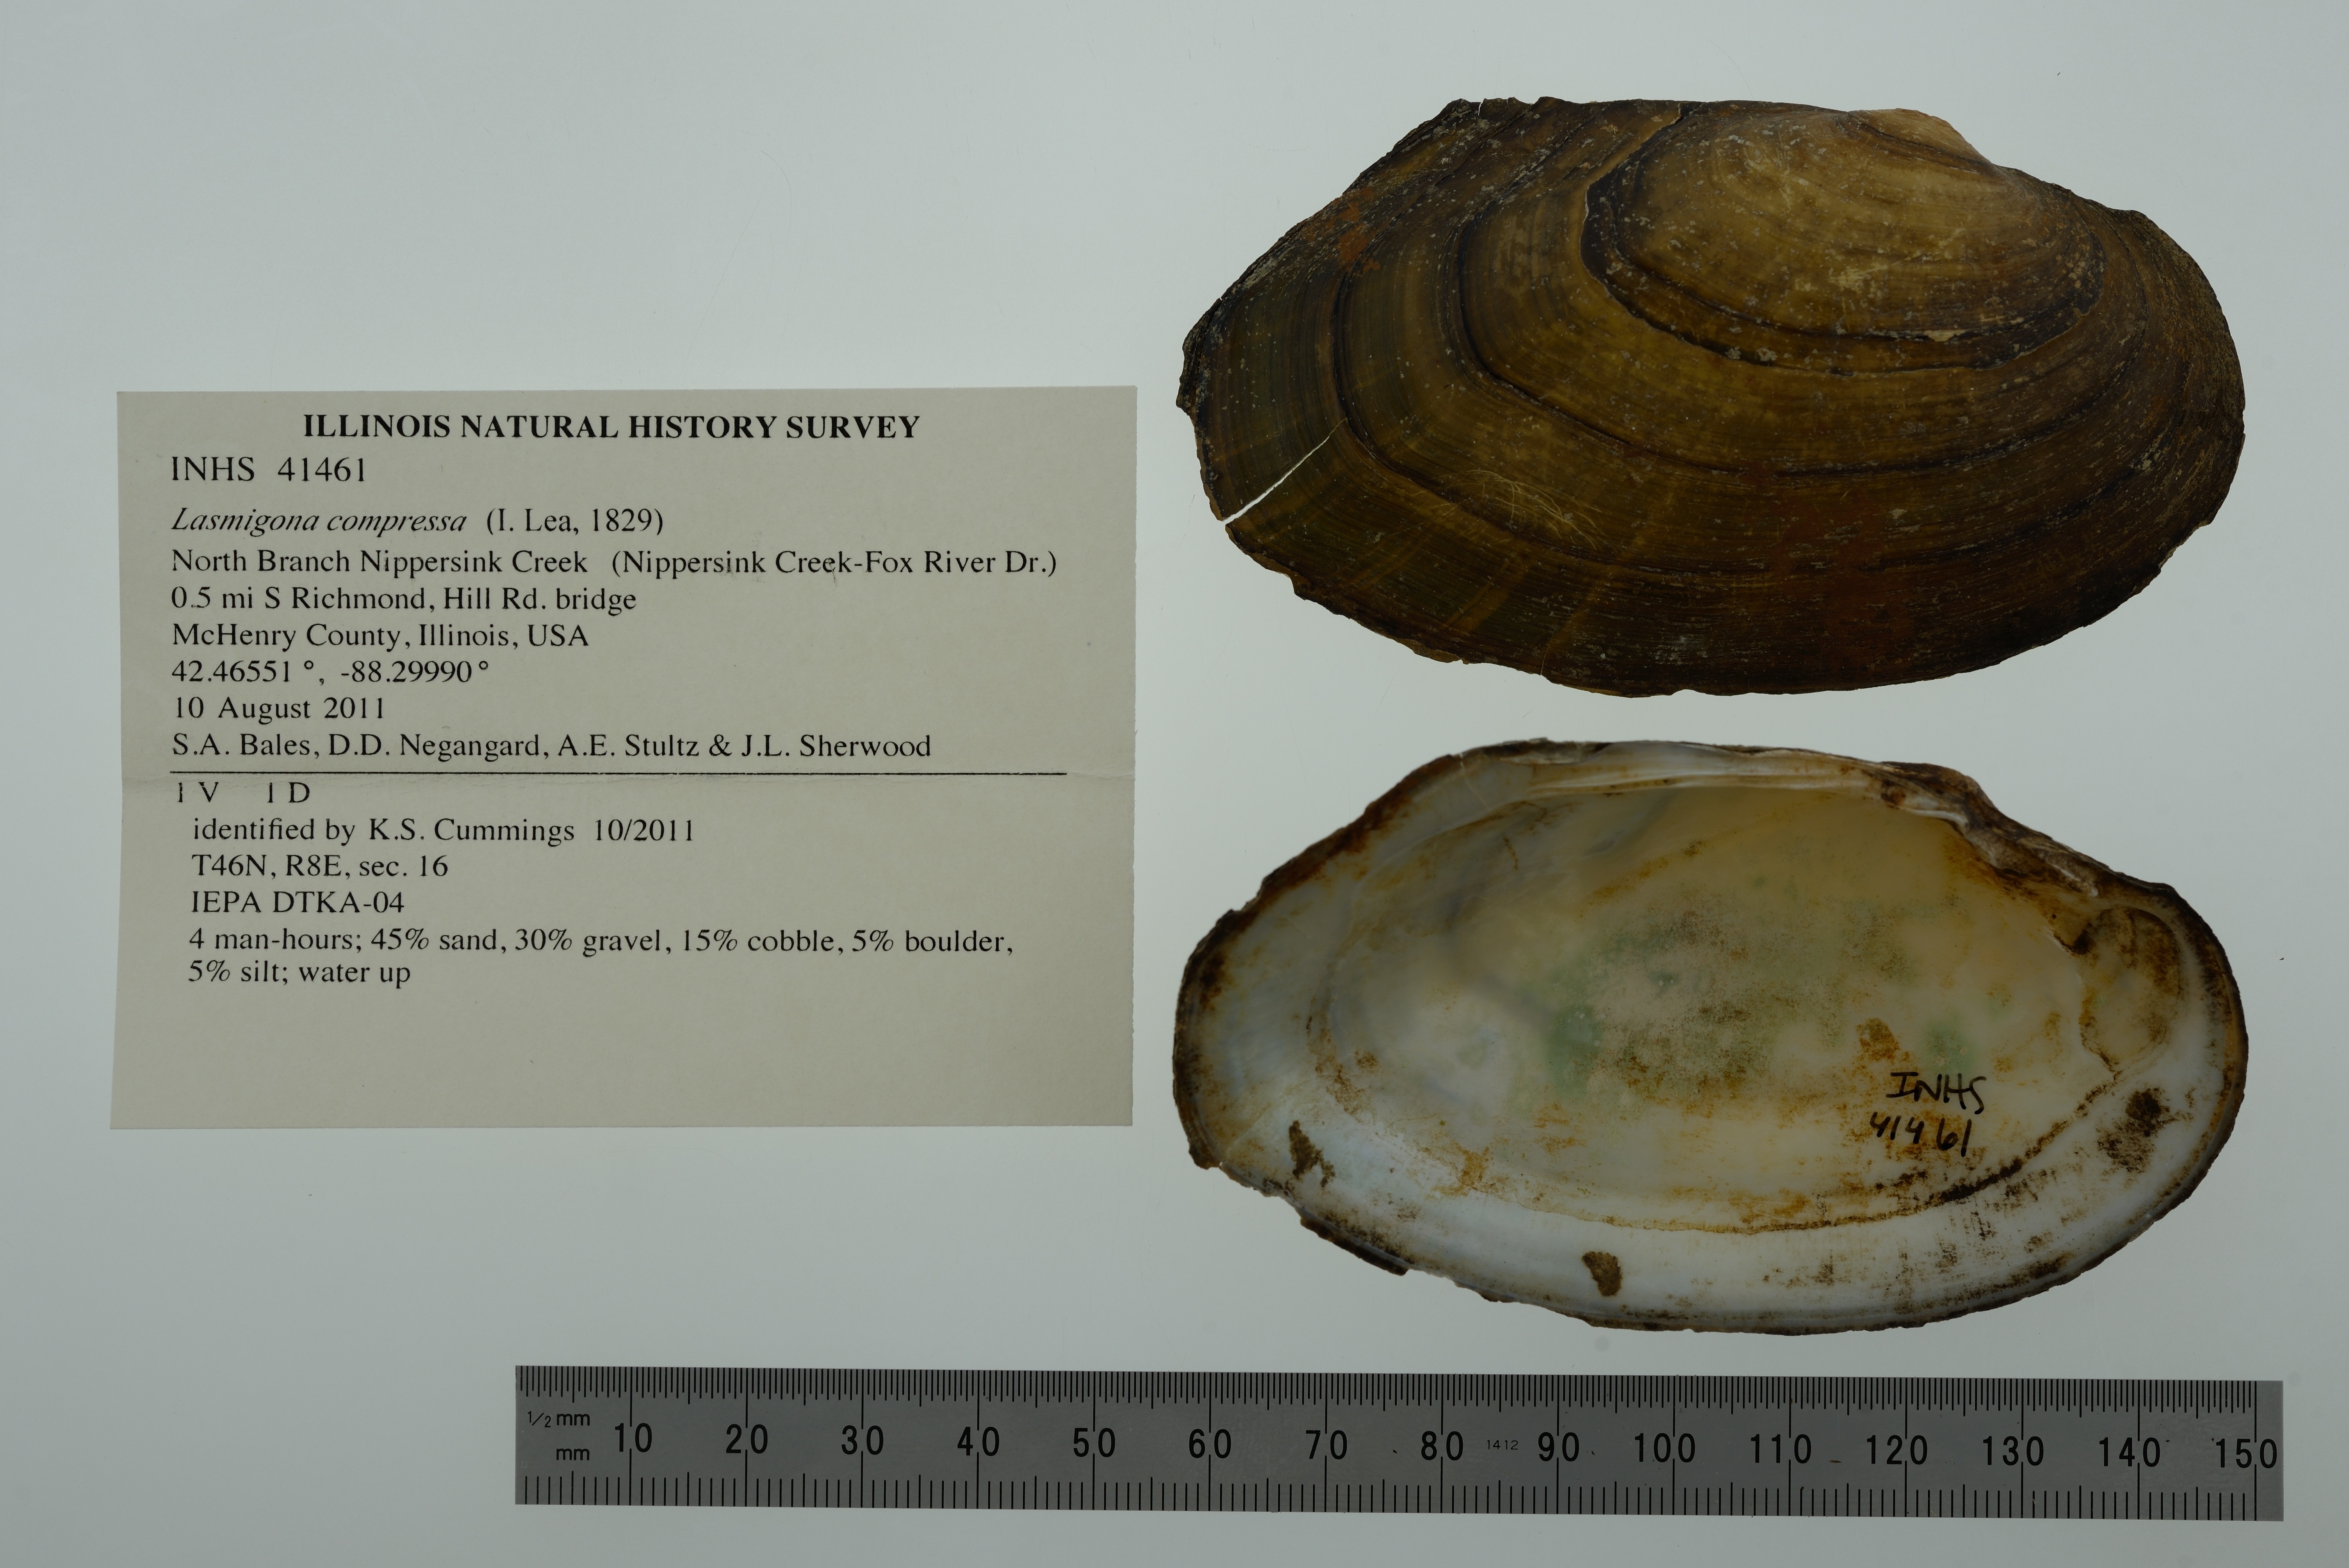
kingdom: Animalia
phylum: Mollusca
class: Bivalvia
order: Unionida
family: Unionidae
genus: Lasmigona
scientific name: Lasmigona compressa
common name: Creek heelsplitter
